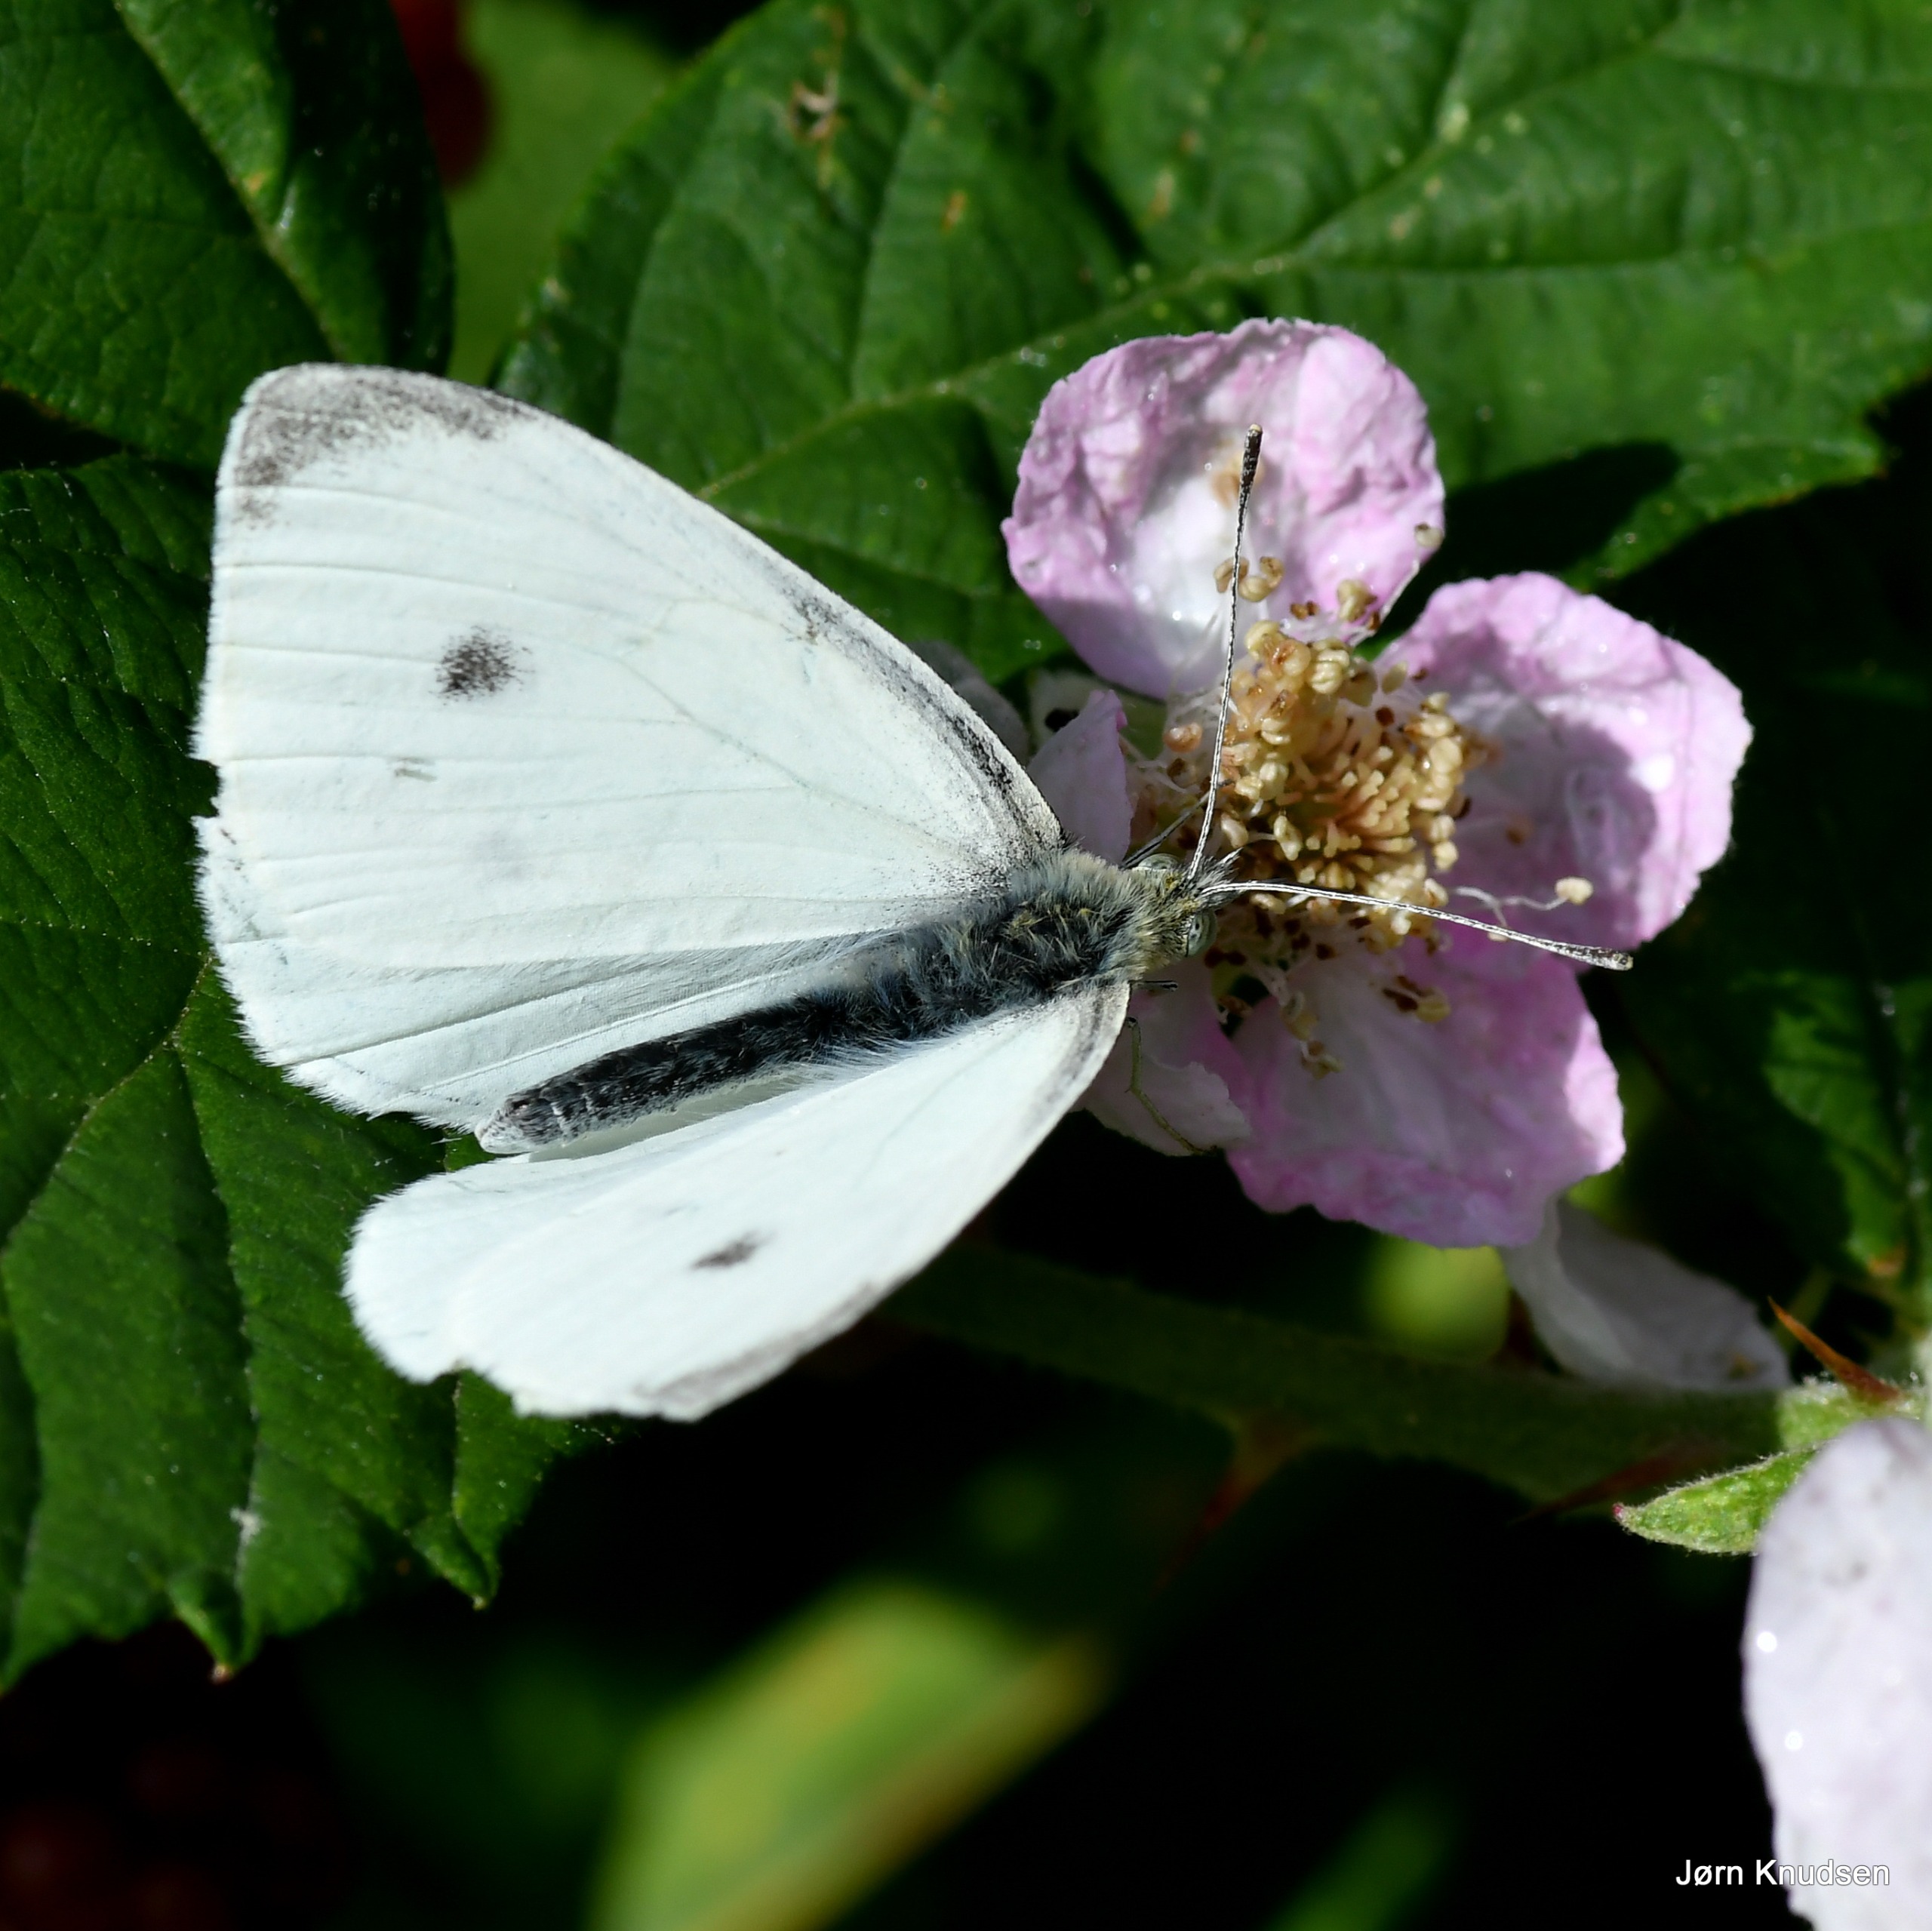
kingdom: Animalia
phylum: Arthropoda
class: Insecta
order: Lepidoptera
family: Pieridae
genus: Pieris
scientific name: Pieris rapae
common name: Lille kålsommerfugl
